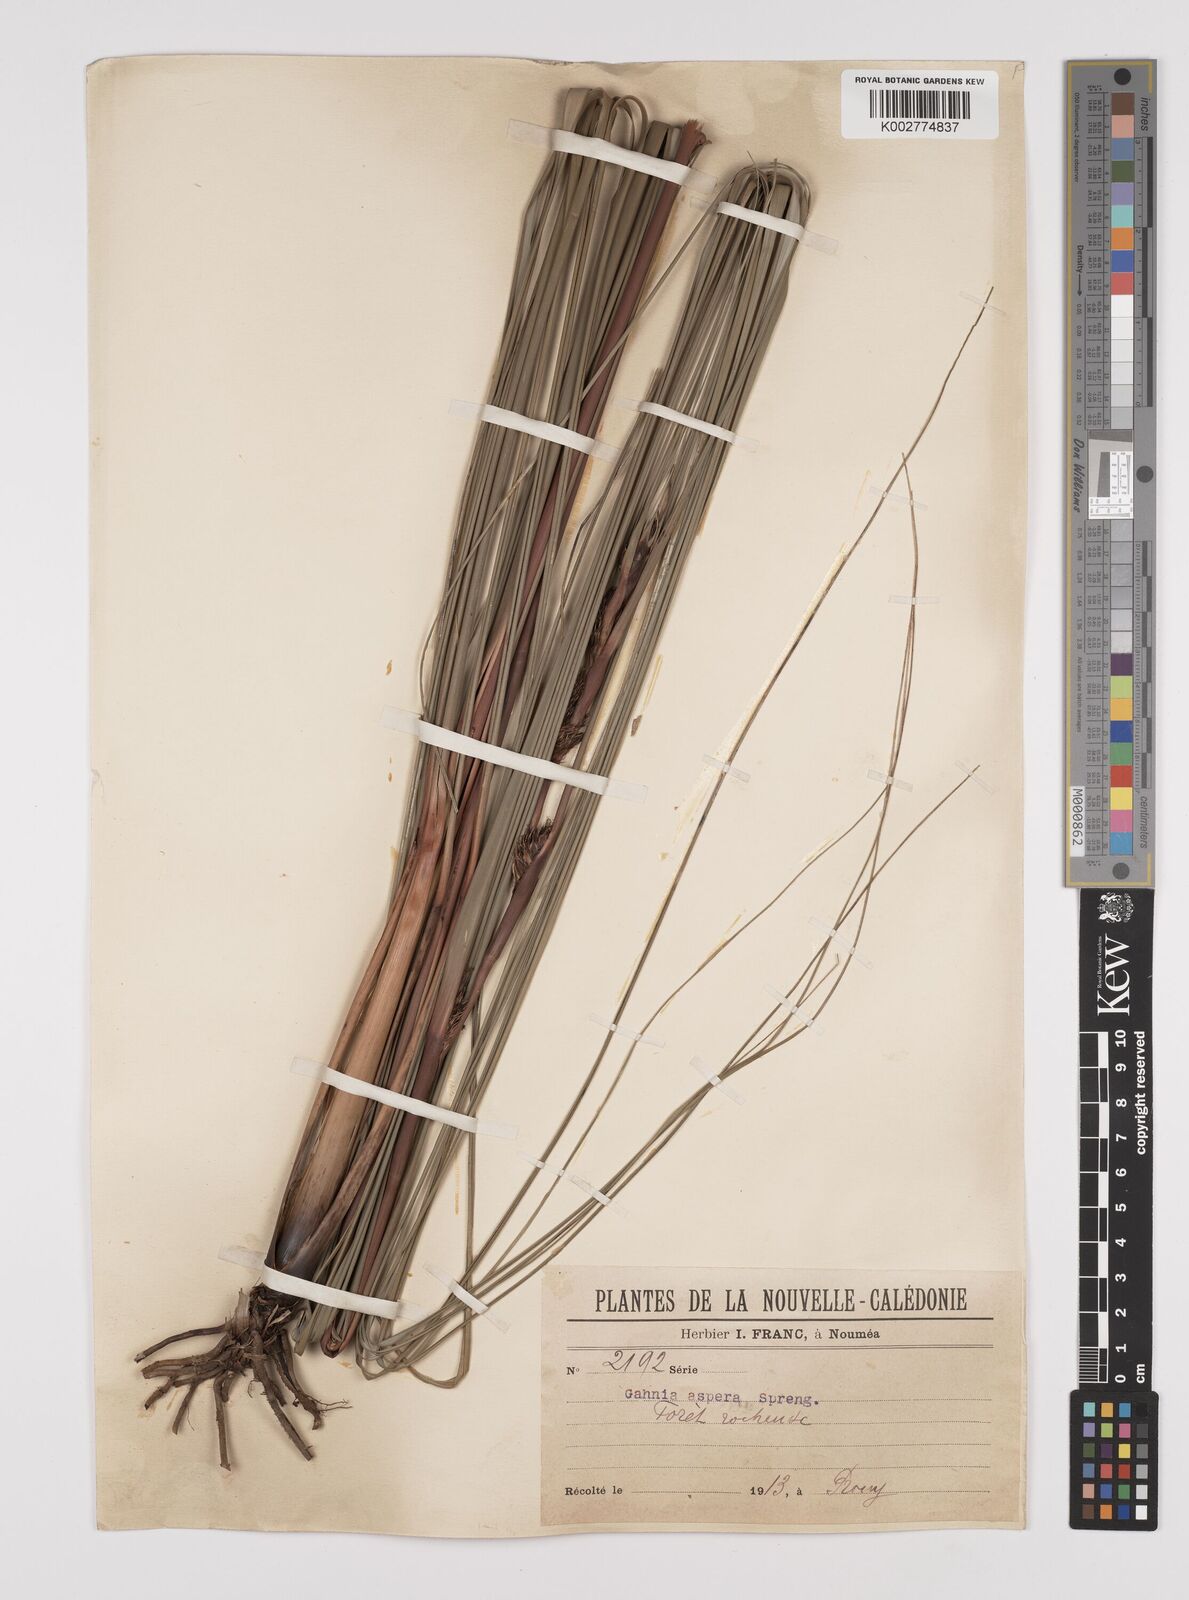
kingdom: Plantae
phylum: Tracheophyta
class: Liliopsida
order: Poales
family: Cyperaceae
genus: Gahnia
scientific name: Gahnia aspera
